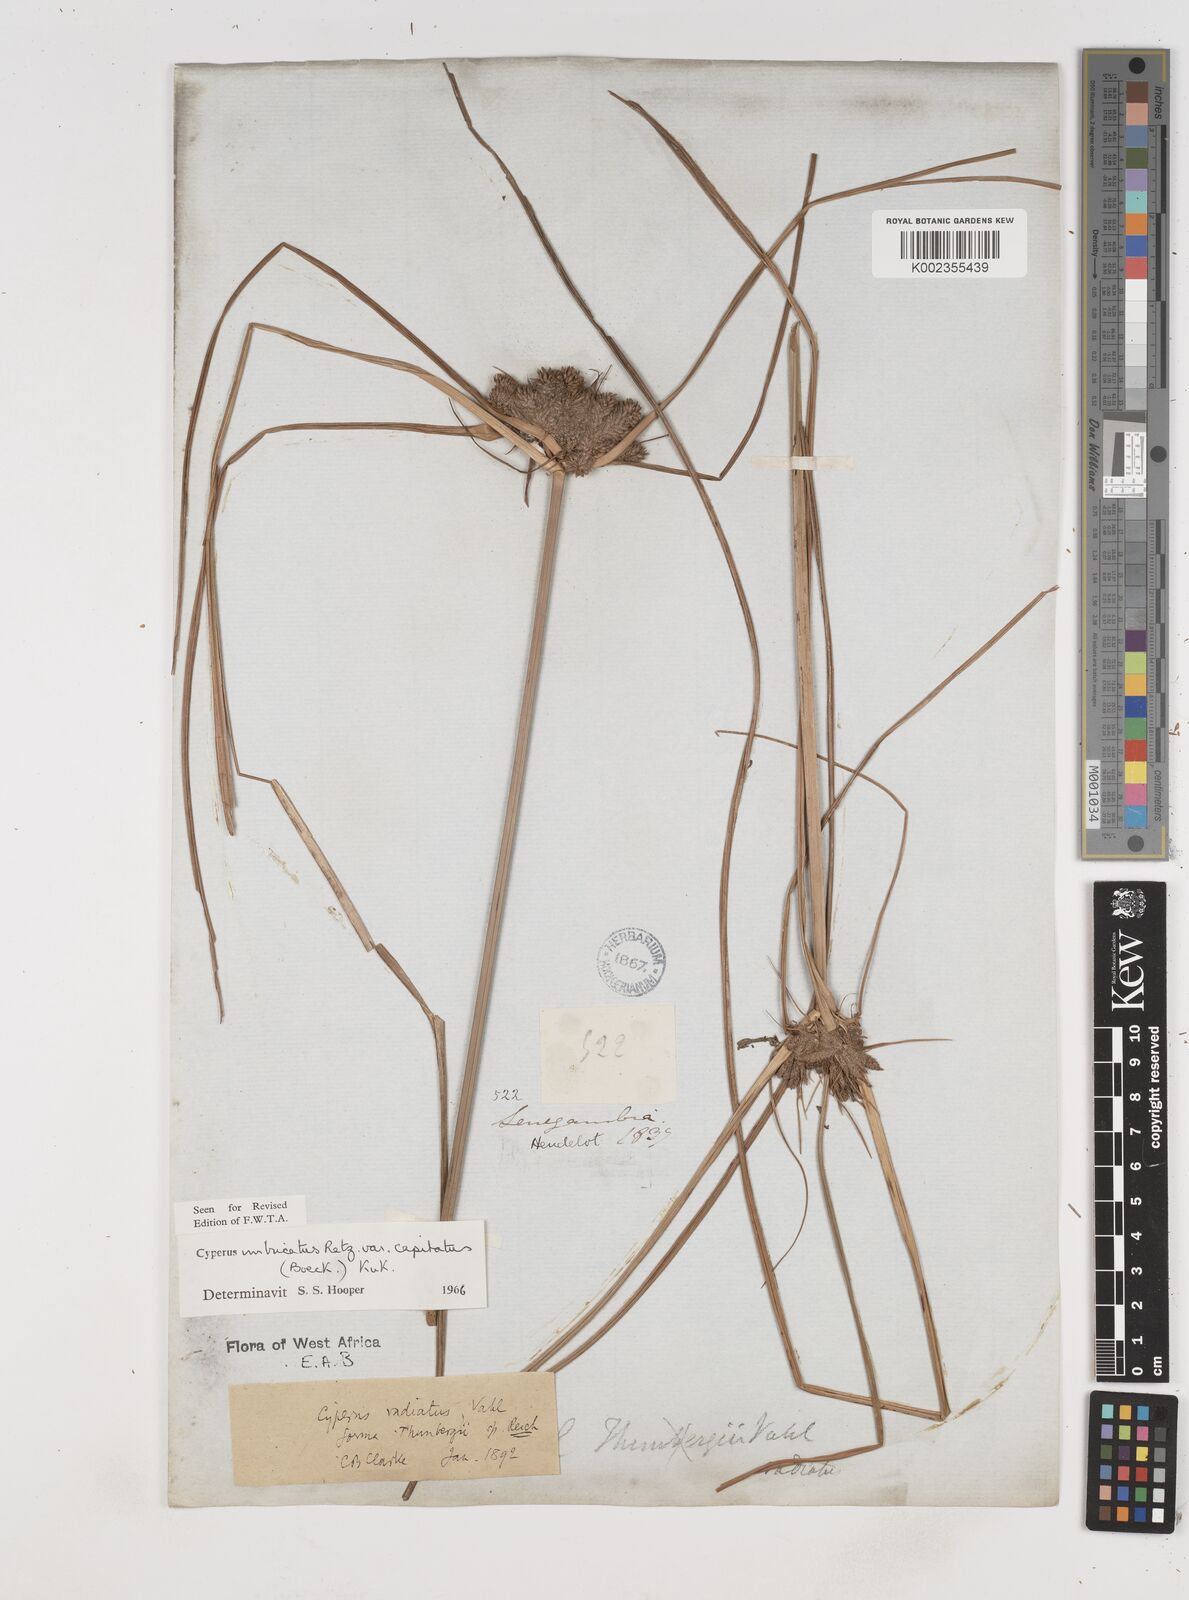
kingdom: Plantae
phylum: Tracheophyta
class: Liliopsida
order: Poales
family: Cyperaceae
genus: Cyperus
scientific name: Cyperus imbricatus
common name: Shingle flatsedge
